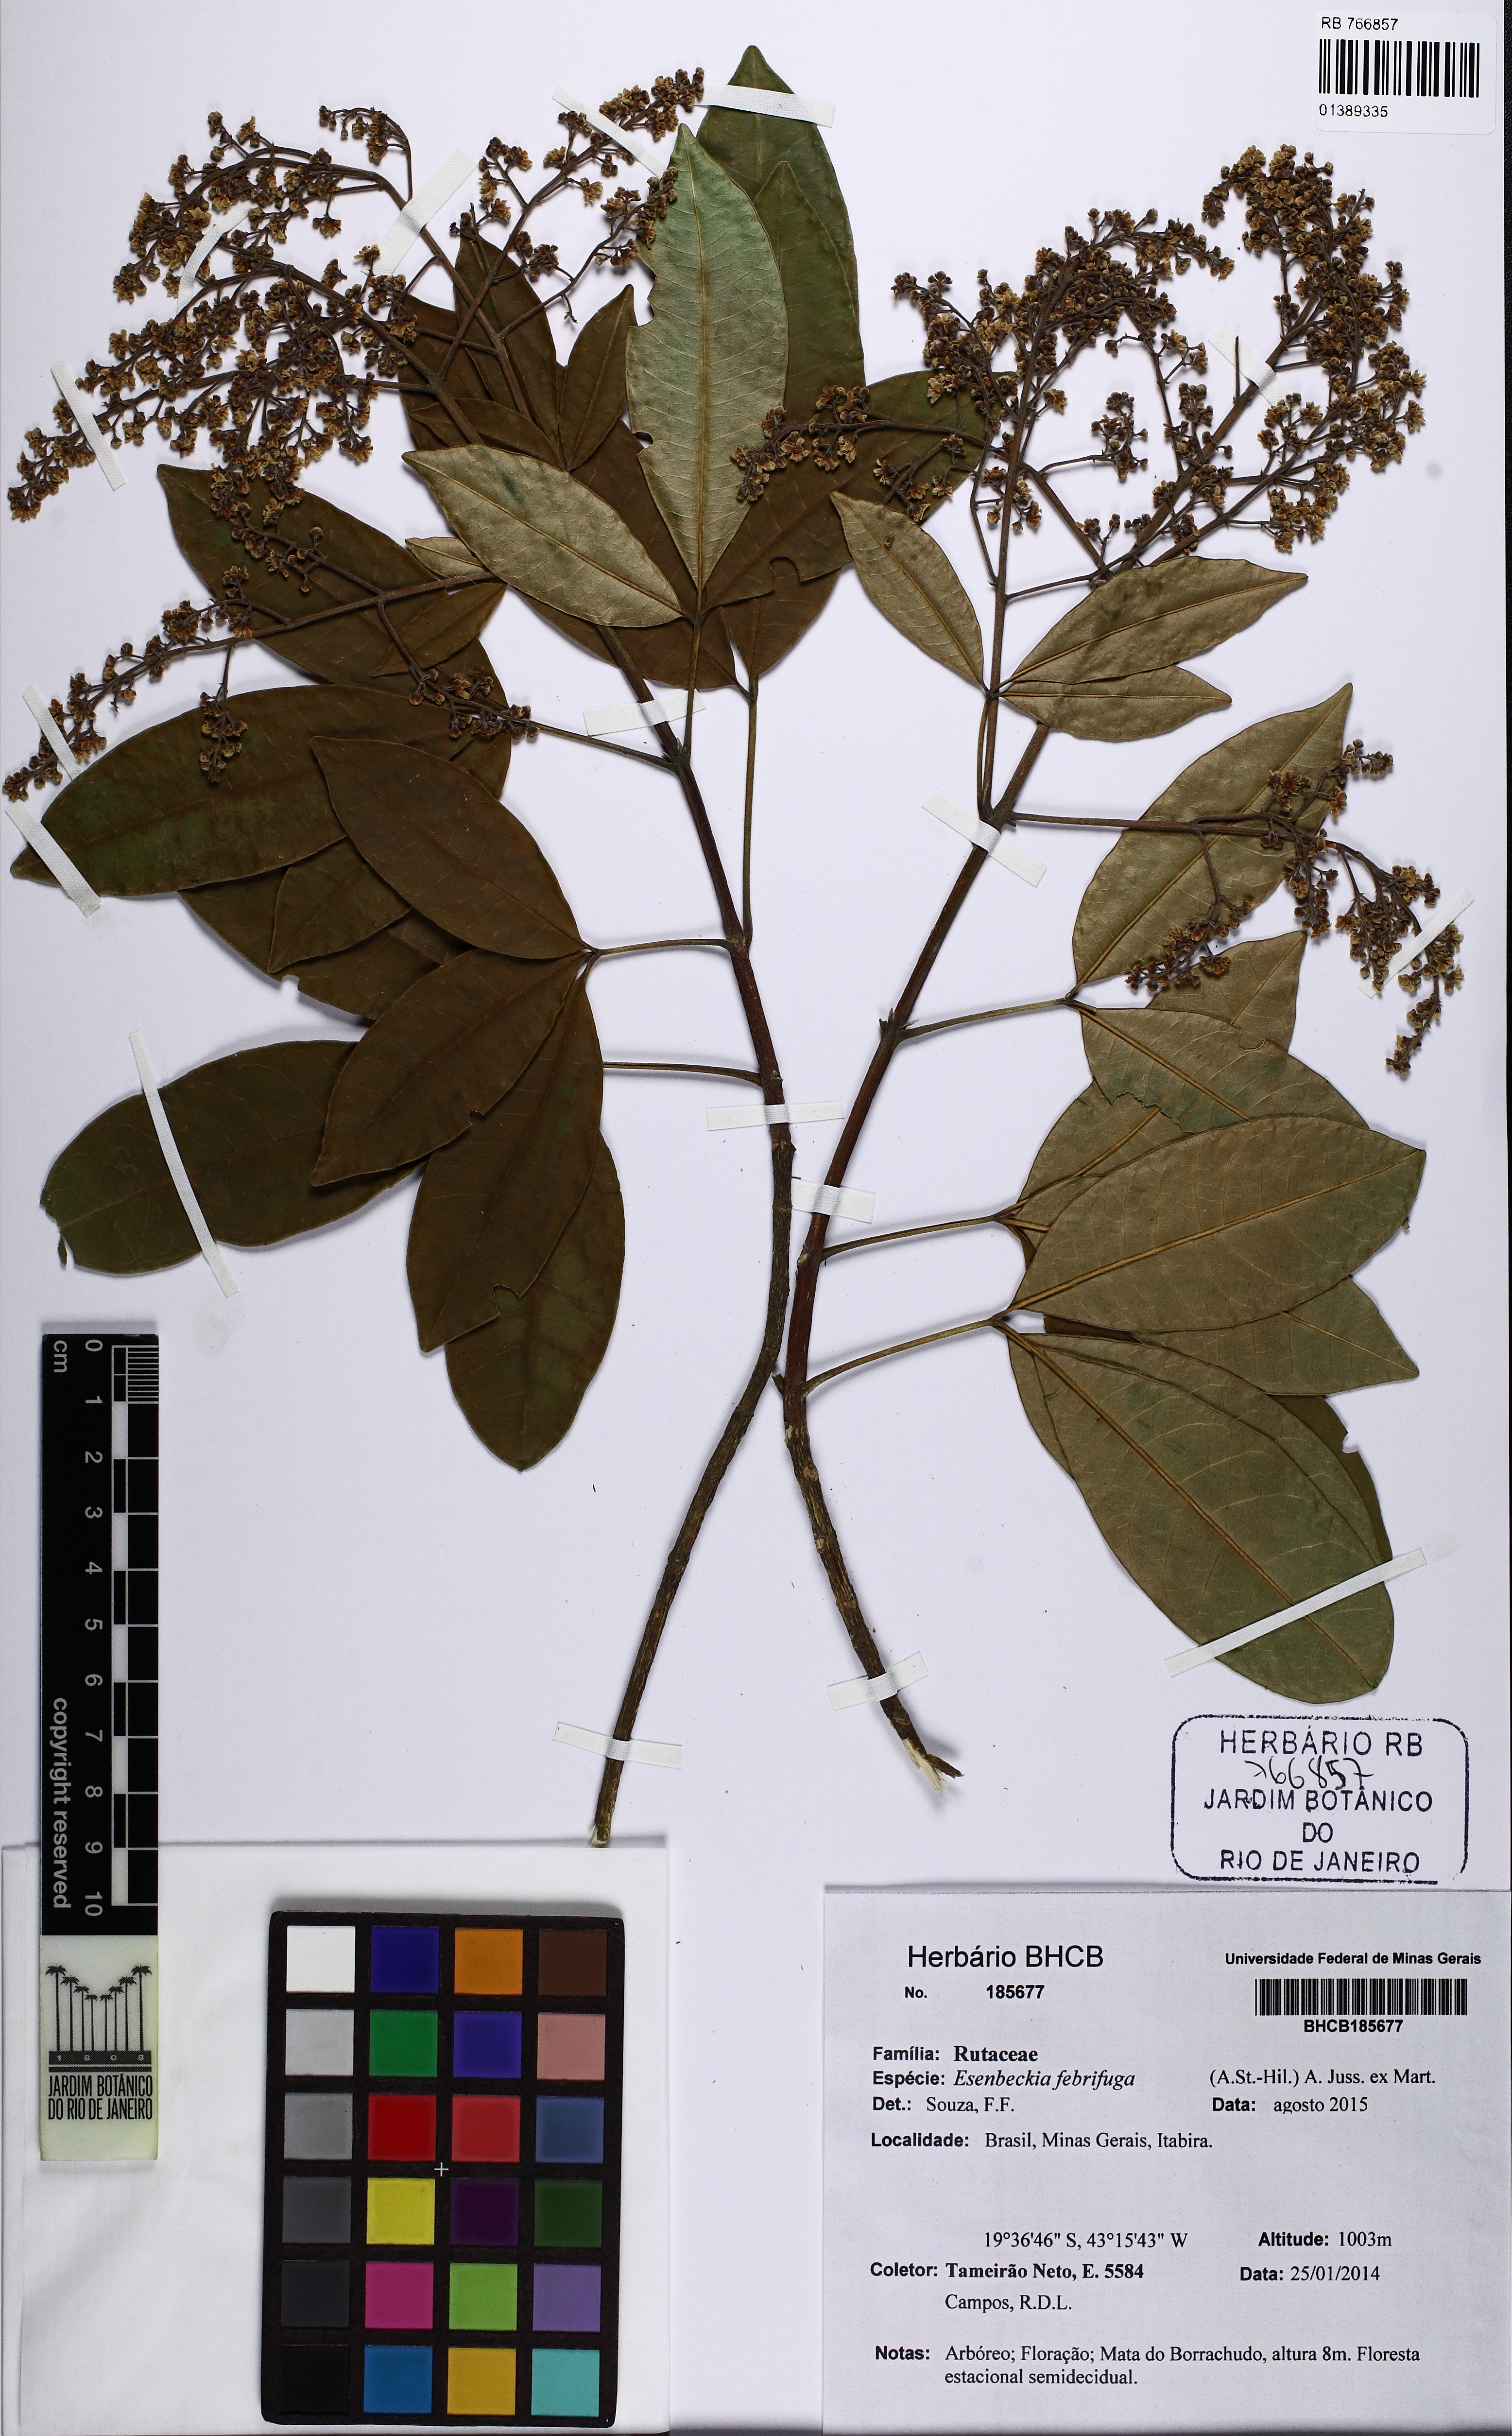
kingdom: Plantae
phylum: Tracheophyta
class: Magnoliopsida
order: Sapindales
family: Rutaceae
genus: Esenbeckia
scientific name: Esenbeckia febrifuga
